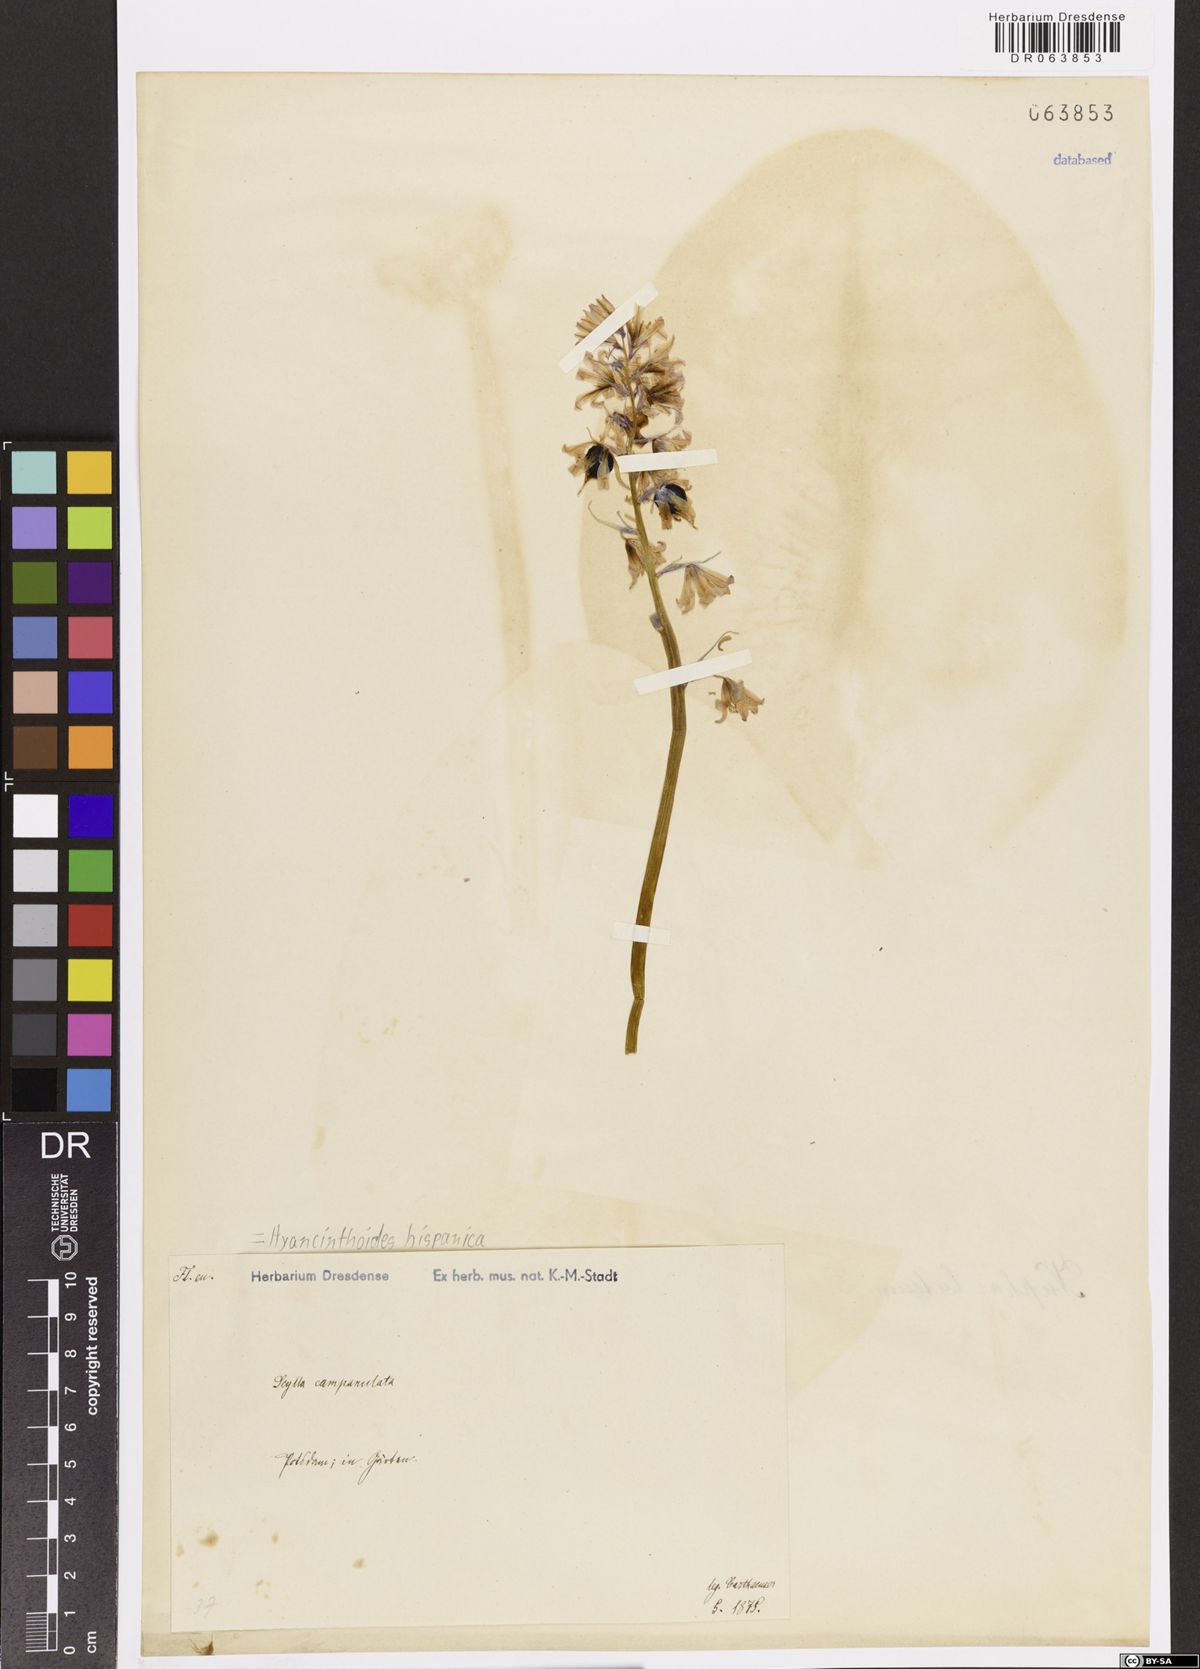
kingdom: Plantae
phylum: Tracheophyta
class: Liliopsida
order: Asparagales
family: Asparagaceae
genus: Hyacinthoides
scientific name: Hyacinthoides hispanica
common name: Spanish bluebell
